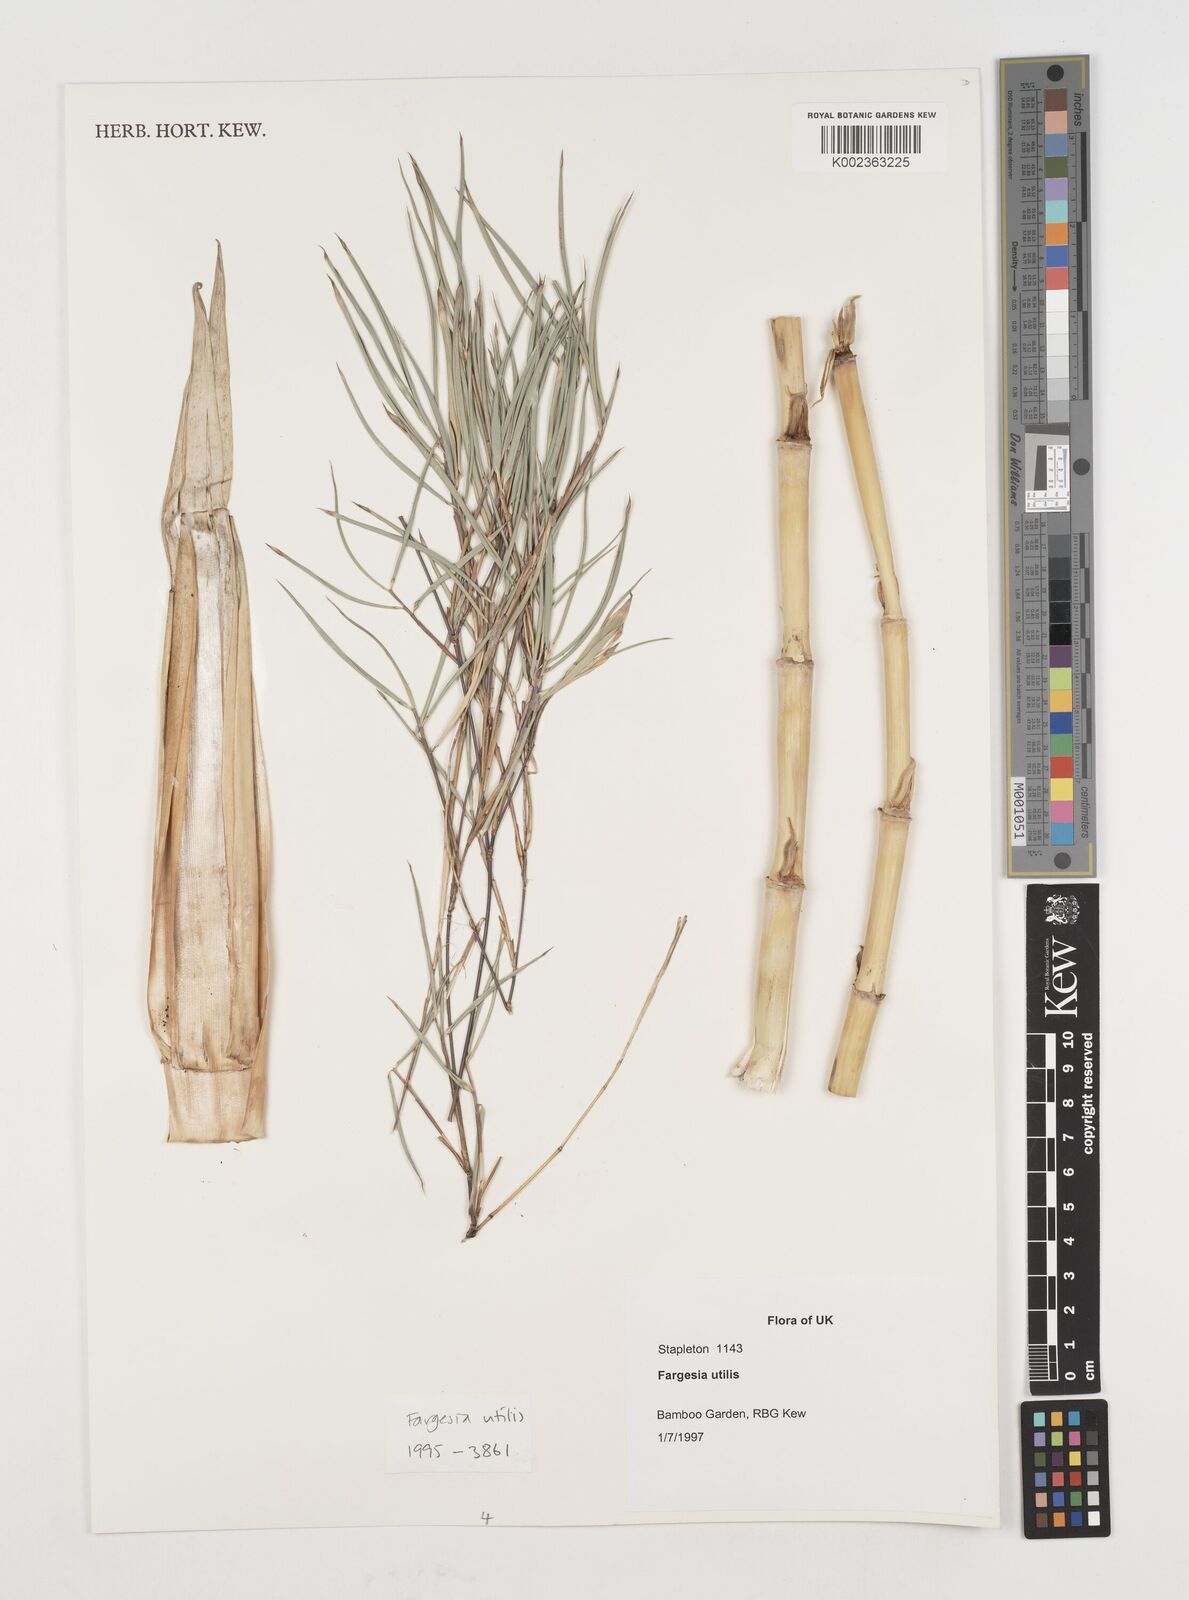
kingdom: Plantae
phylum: Tracheophyta
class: Liliopsida
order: Poales
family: Poaceae
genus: Borinda
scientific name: Borinda utilis
